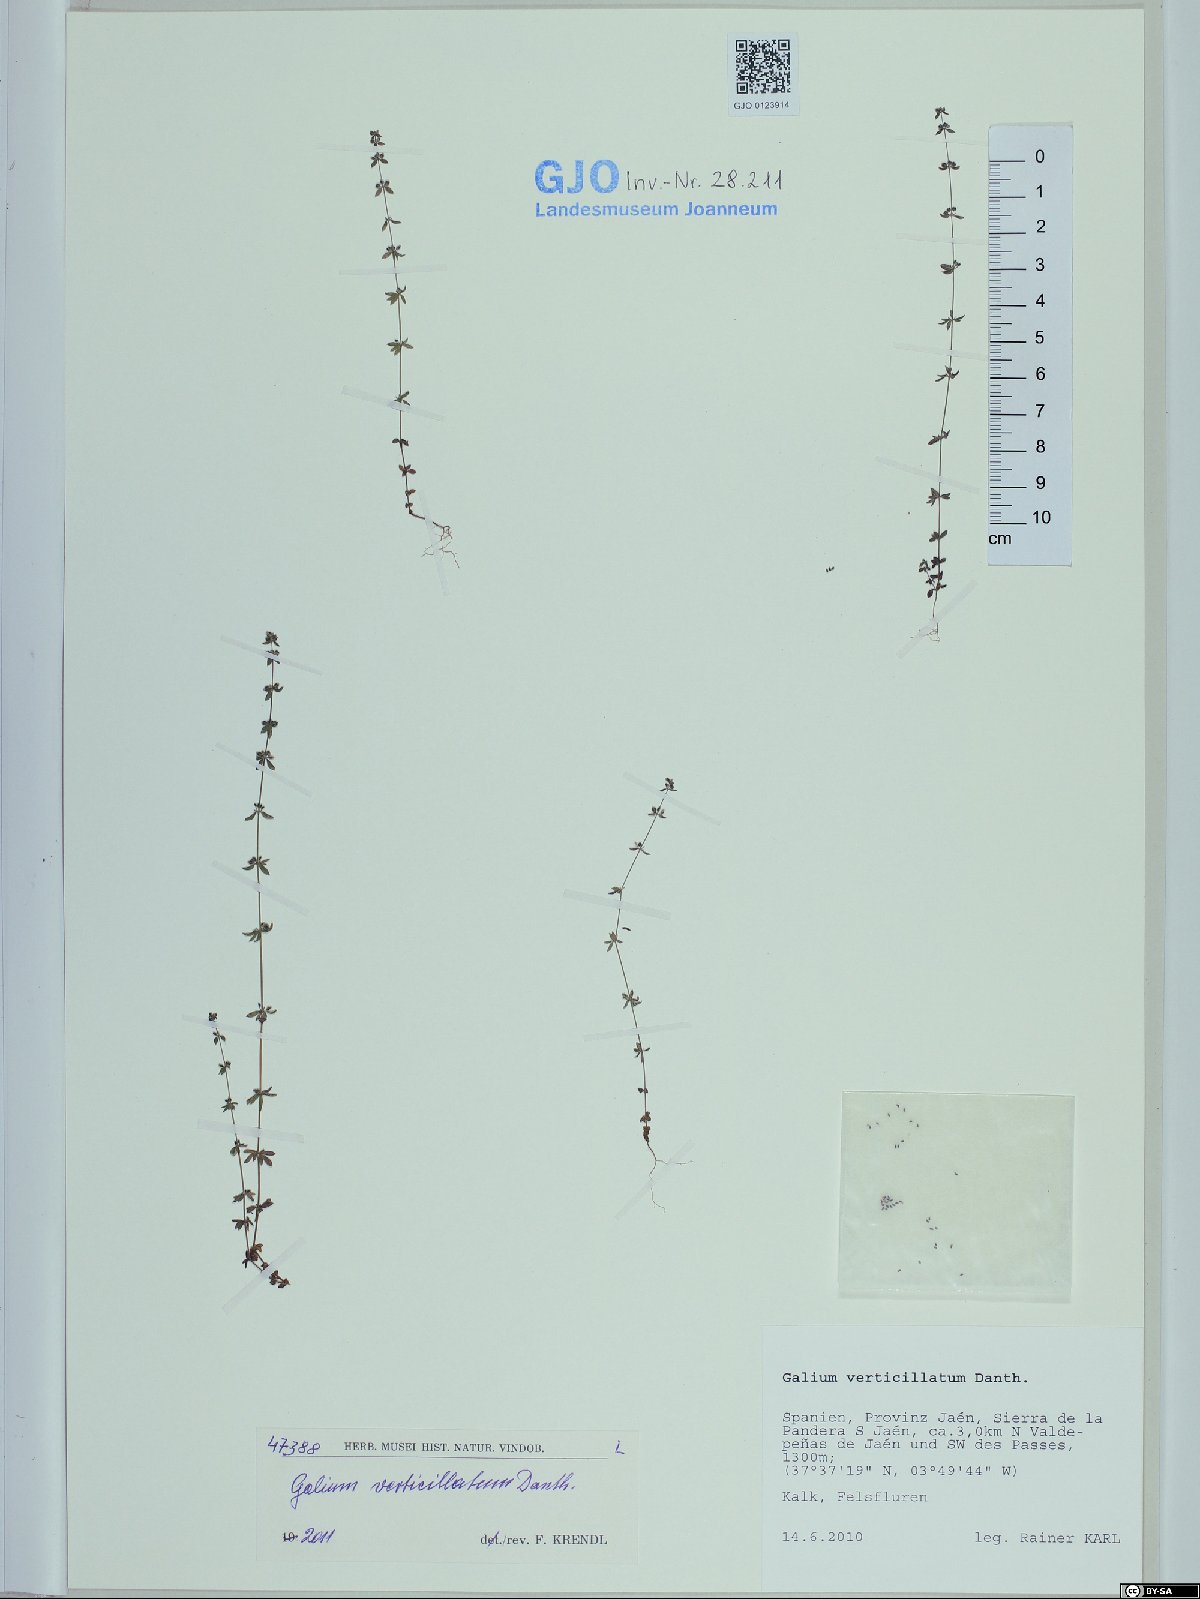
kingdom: Plantae
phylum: Tracheophyta
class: Magnoliopsida
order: Gentianales
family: Rubiaceae
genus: Galium
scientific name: Galium verticillatum
